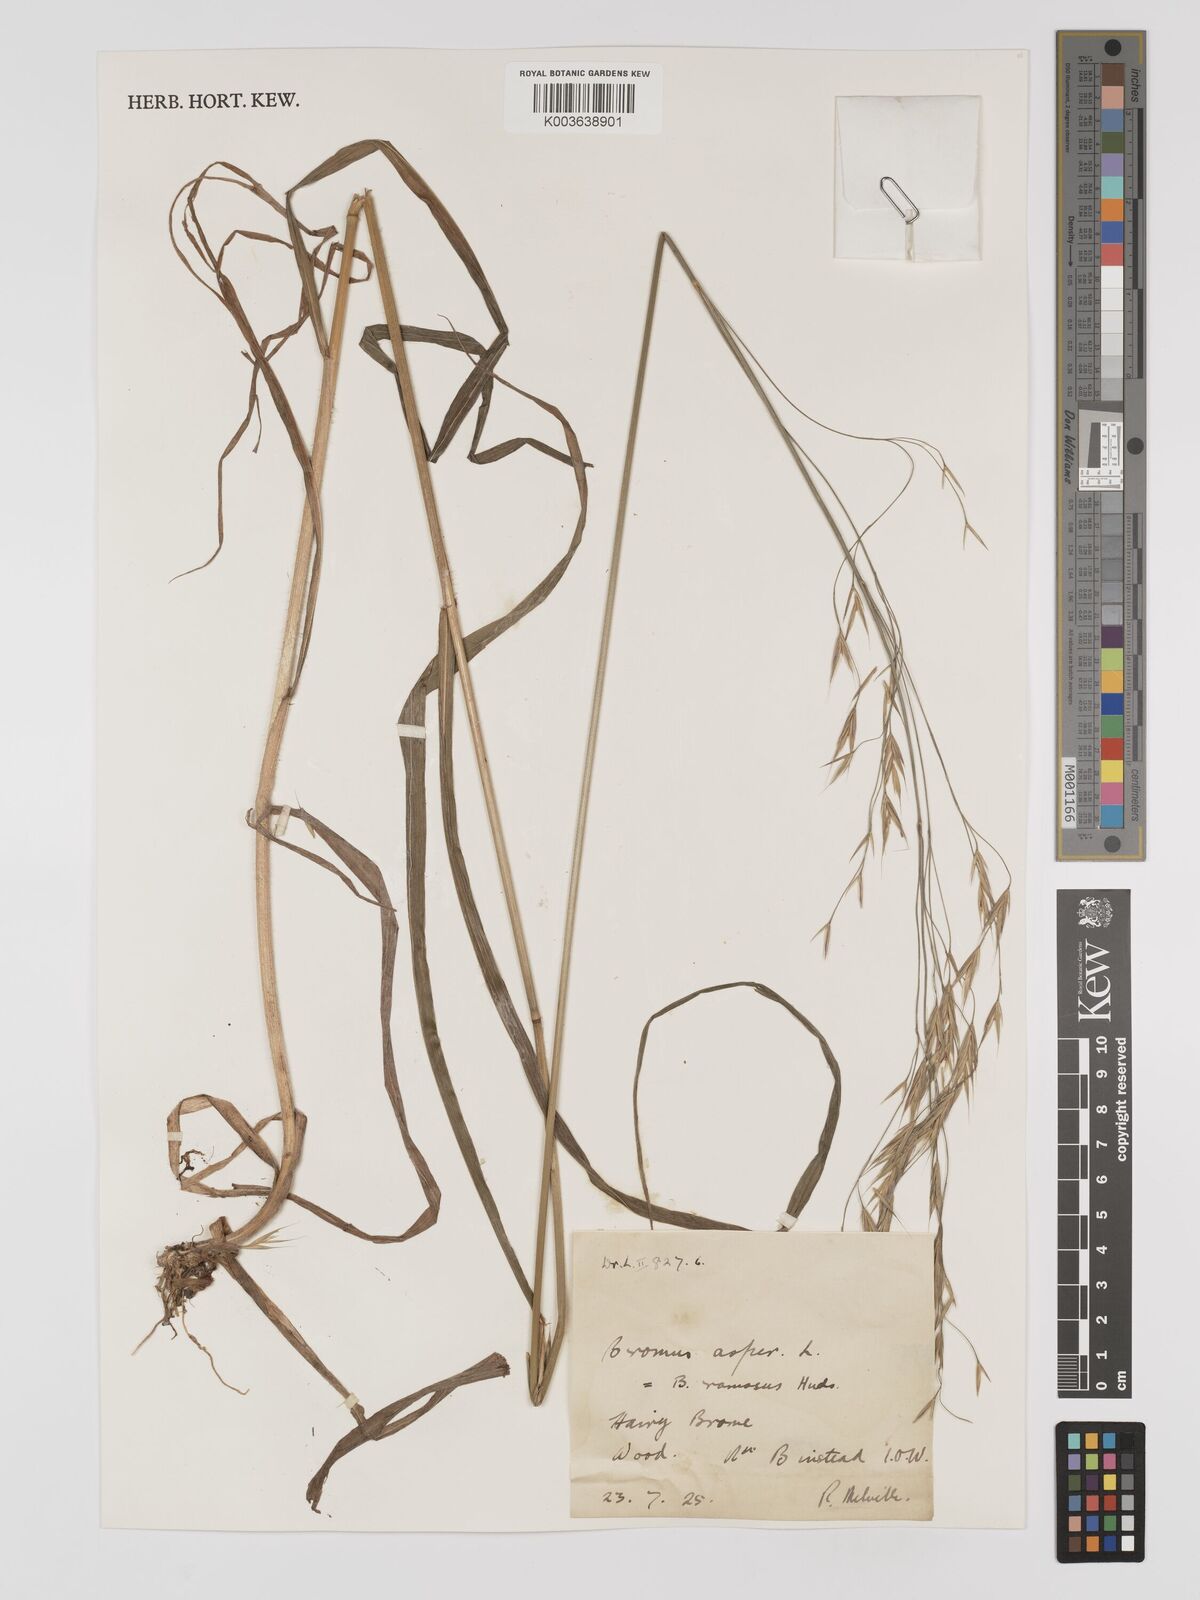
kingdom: Plantae
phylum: Tracheophyta
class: Liliopsida
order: Poales
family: Poaceae
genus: Bromus
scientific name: Bromus ramosus
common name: Hairy brome
